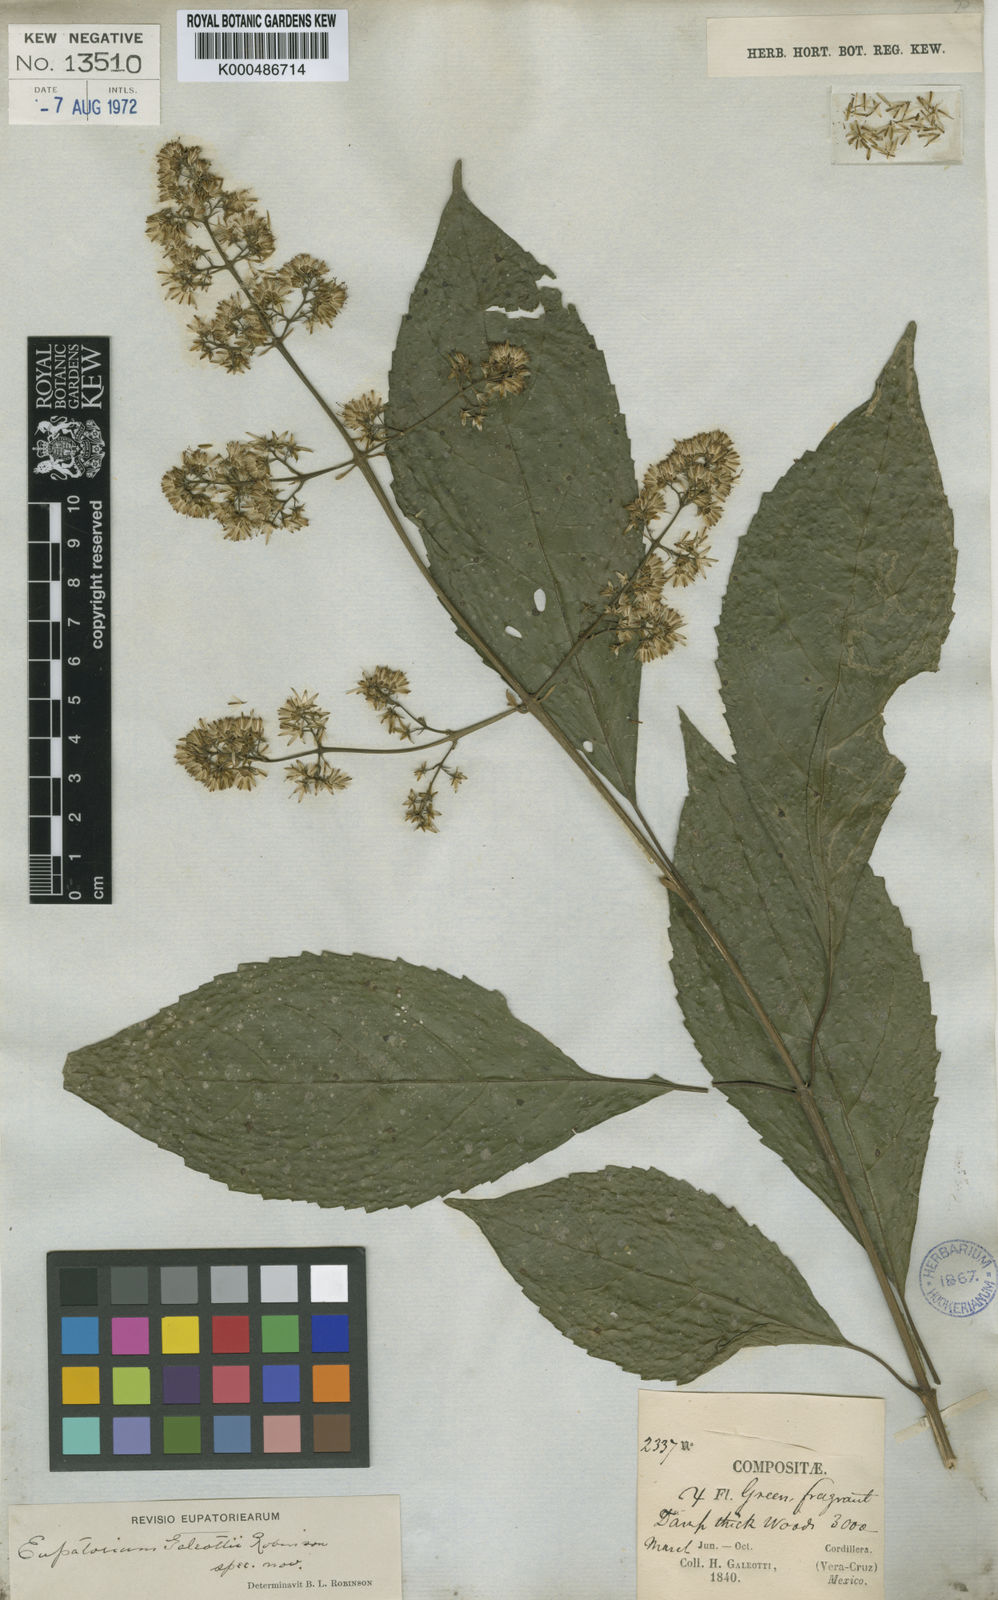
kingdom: Plantae
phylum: Tracheophyta
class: Magnoliopsida
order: Asterales
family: Asteraceae
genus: Koanophyllon
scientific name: Koanophyllon galeottii
